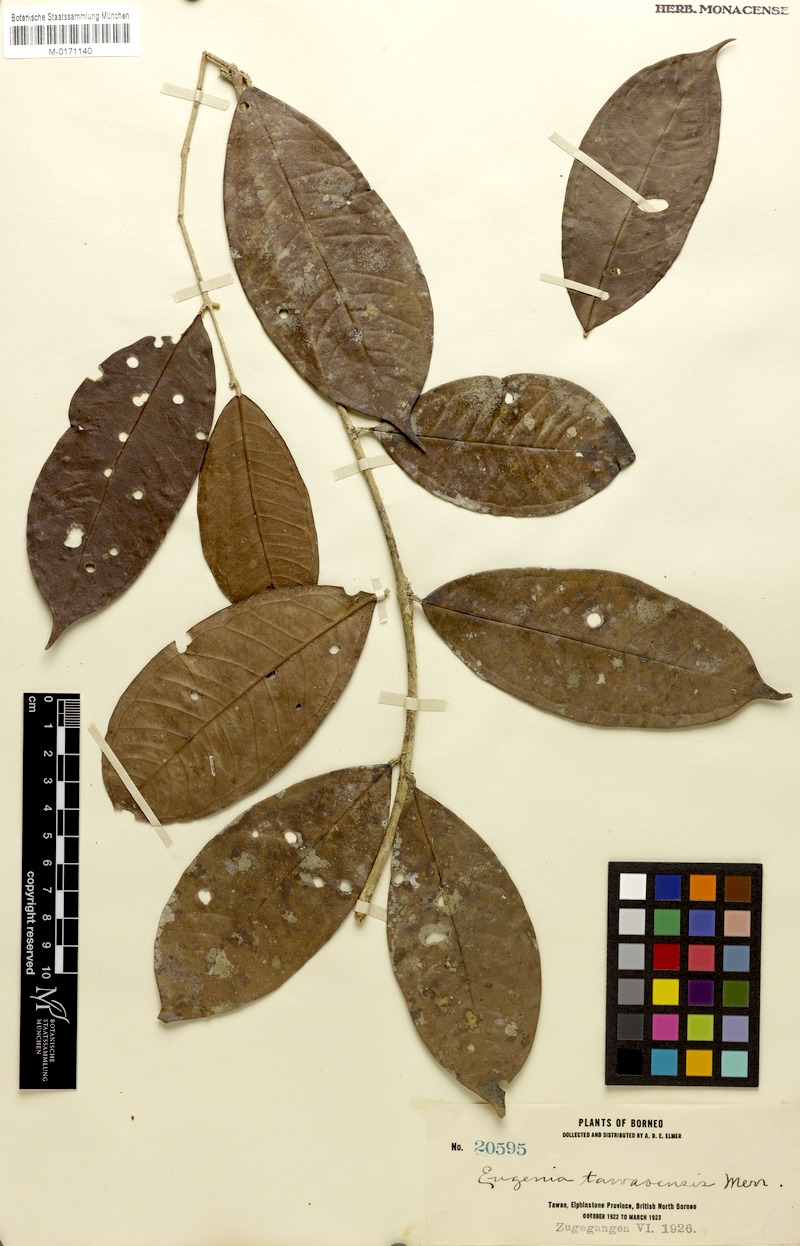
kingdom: Plantae
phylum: Tracheophyta
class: Magnoliopsida
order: Myrtales
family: Myrtaceae
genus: Syzygium
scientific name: Syzygium peregrinum
